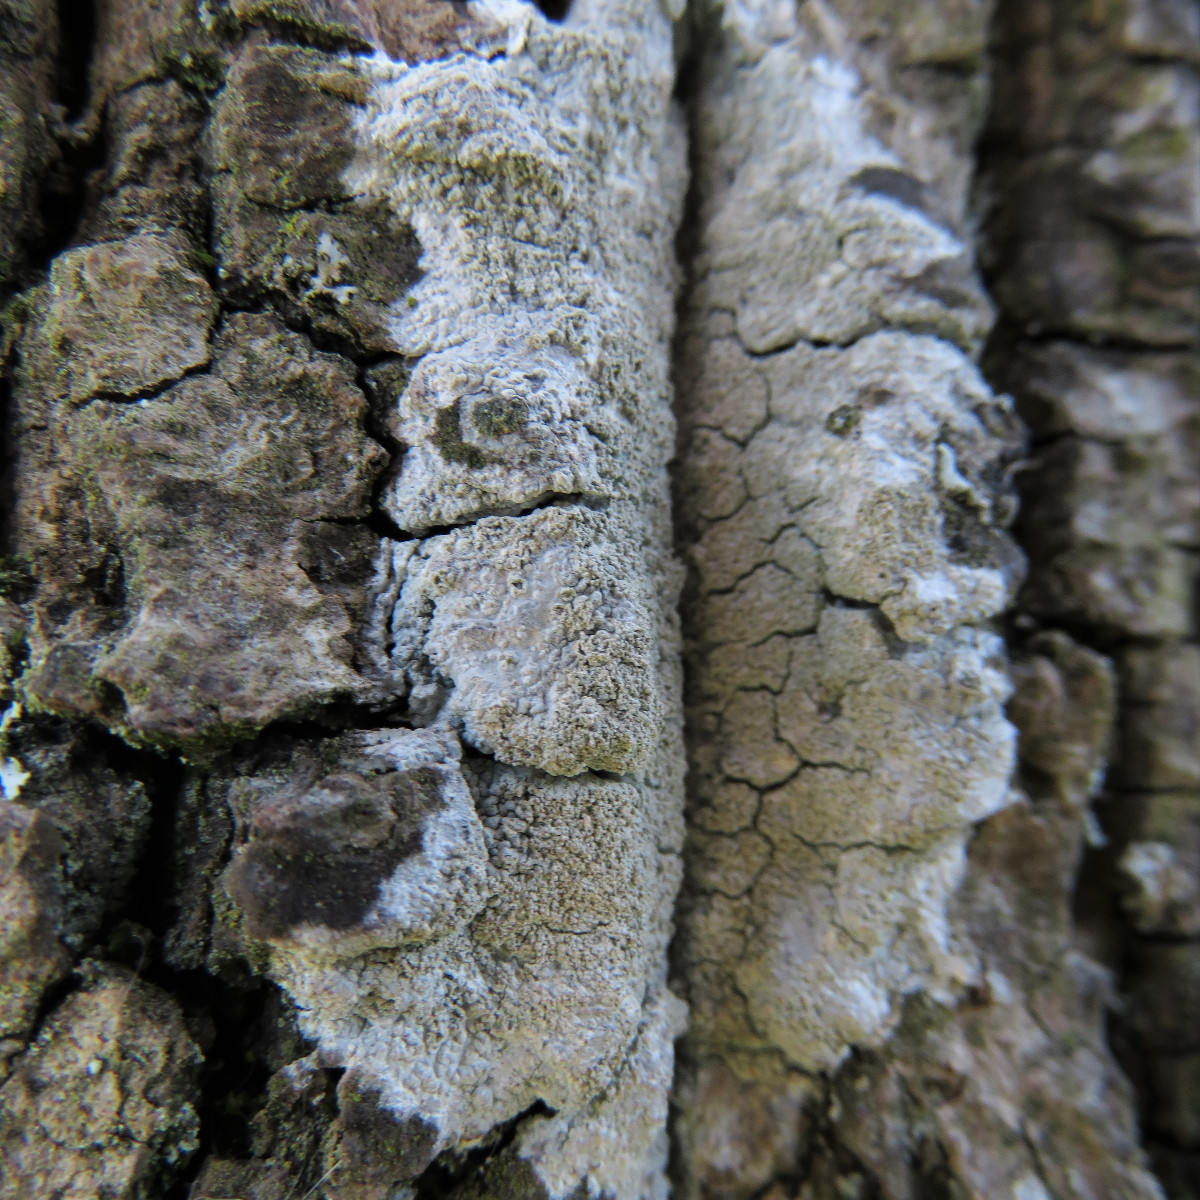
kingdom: Fungi
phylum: Ascomycota
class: Lecanoromycetes
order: Ostropales
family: Phlyctidaceae
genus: Phlyctis
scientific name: Phlyctis argena
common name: almindelig sølvlav
